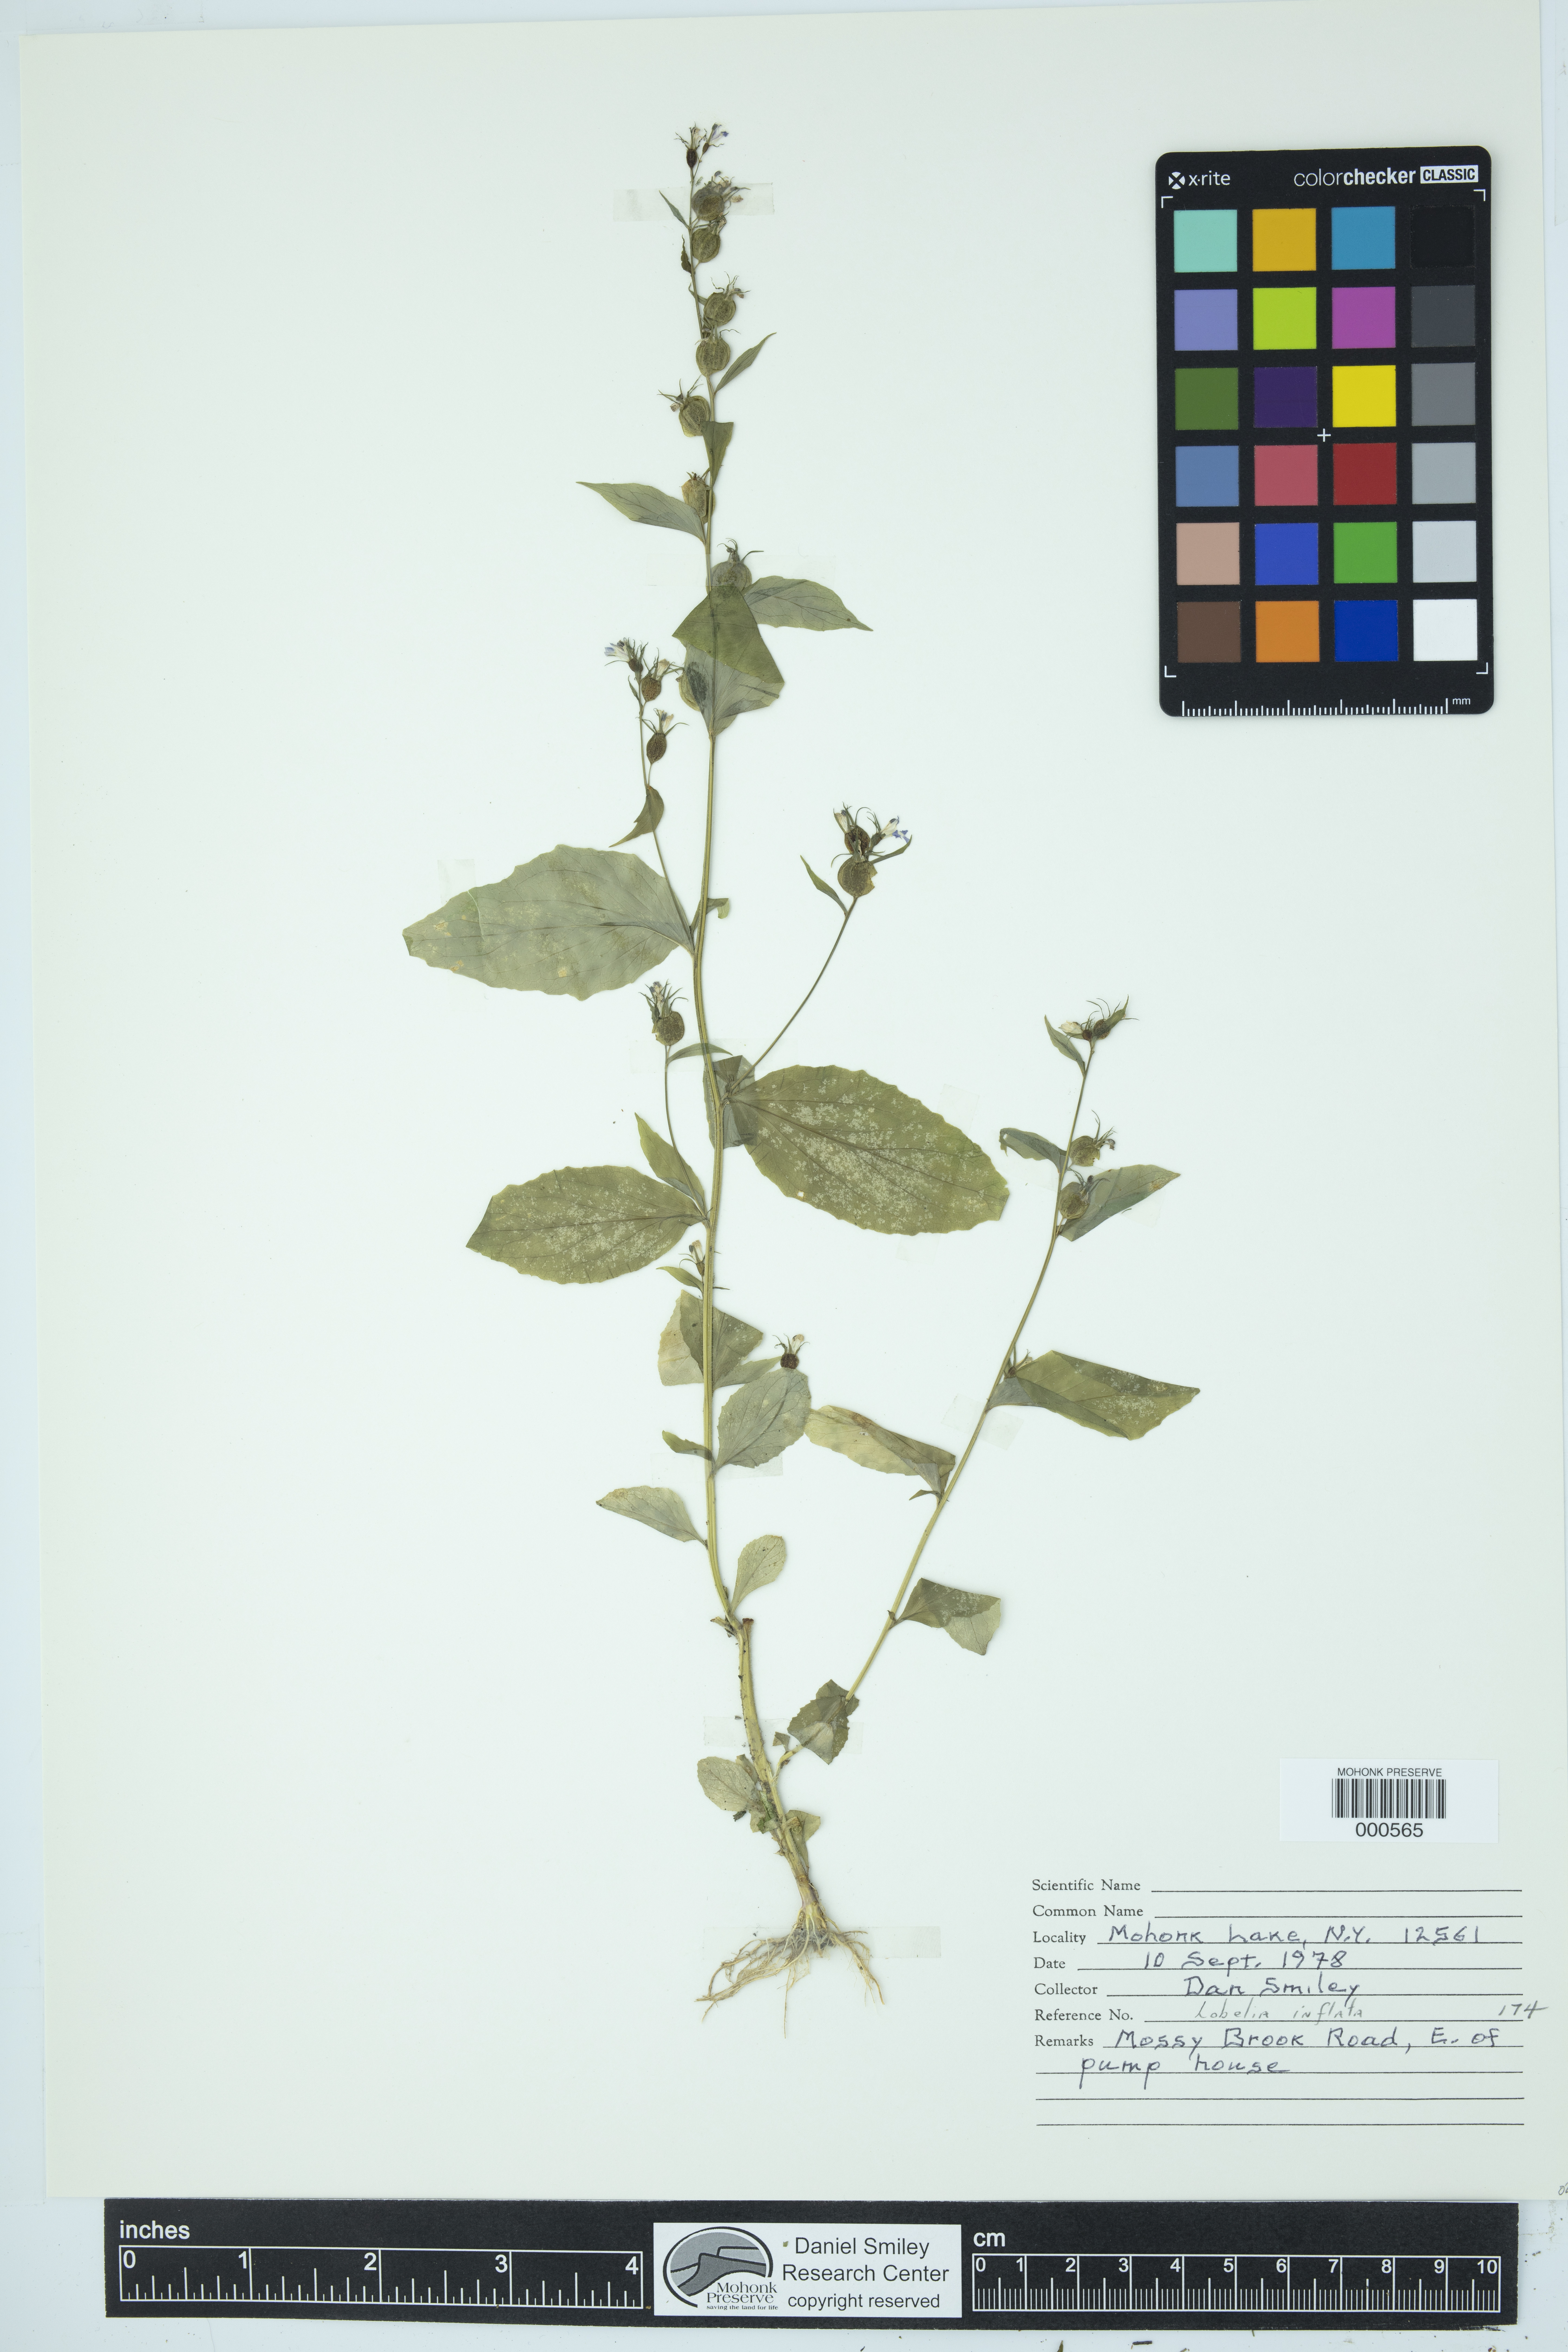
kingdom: Plantae
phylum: Tracheophyta
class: Magnoliopsida
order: Asterales
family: Campanulaceae
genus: Lobelia
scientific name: Lobelia inflata
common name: Indian tobacco
